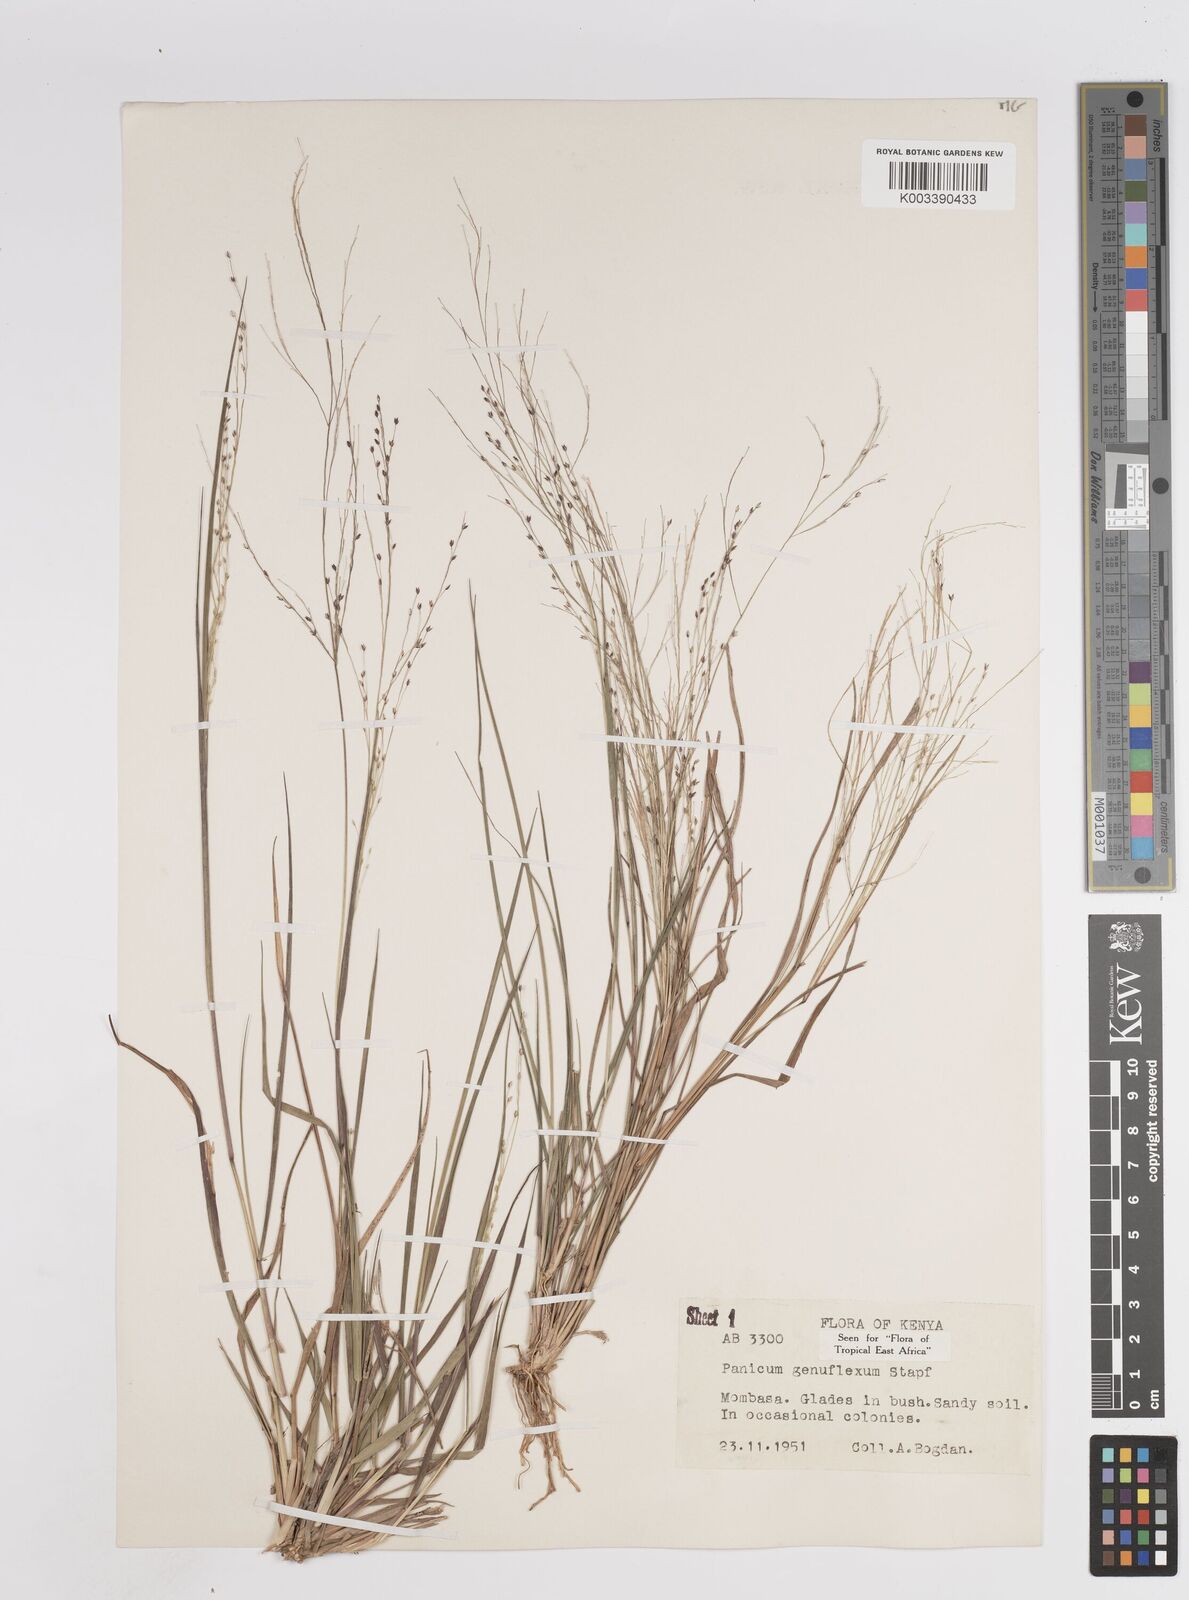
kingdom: Plantae
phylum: Tracheophyta
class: Liliopsida
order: Poales
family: Poaceae
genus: Panicum
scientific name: Panicum genuflexum
